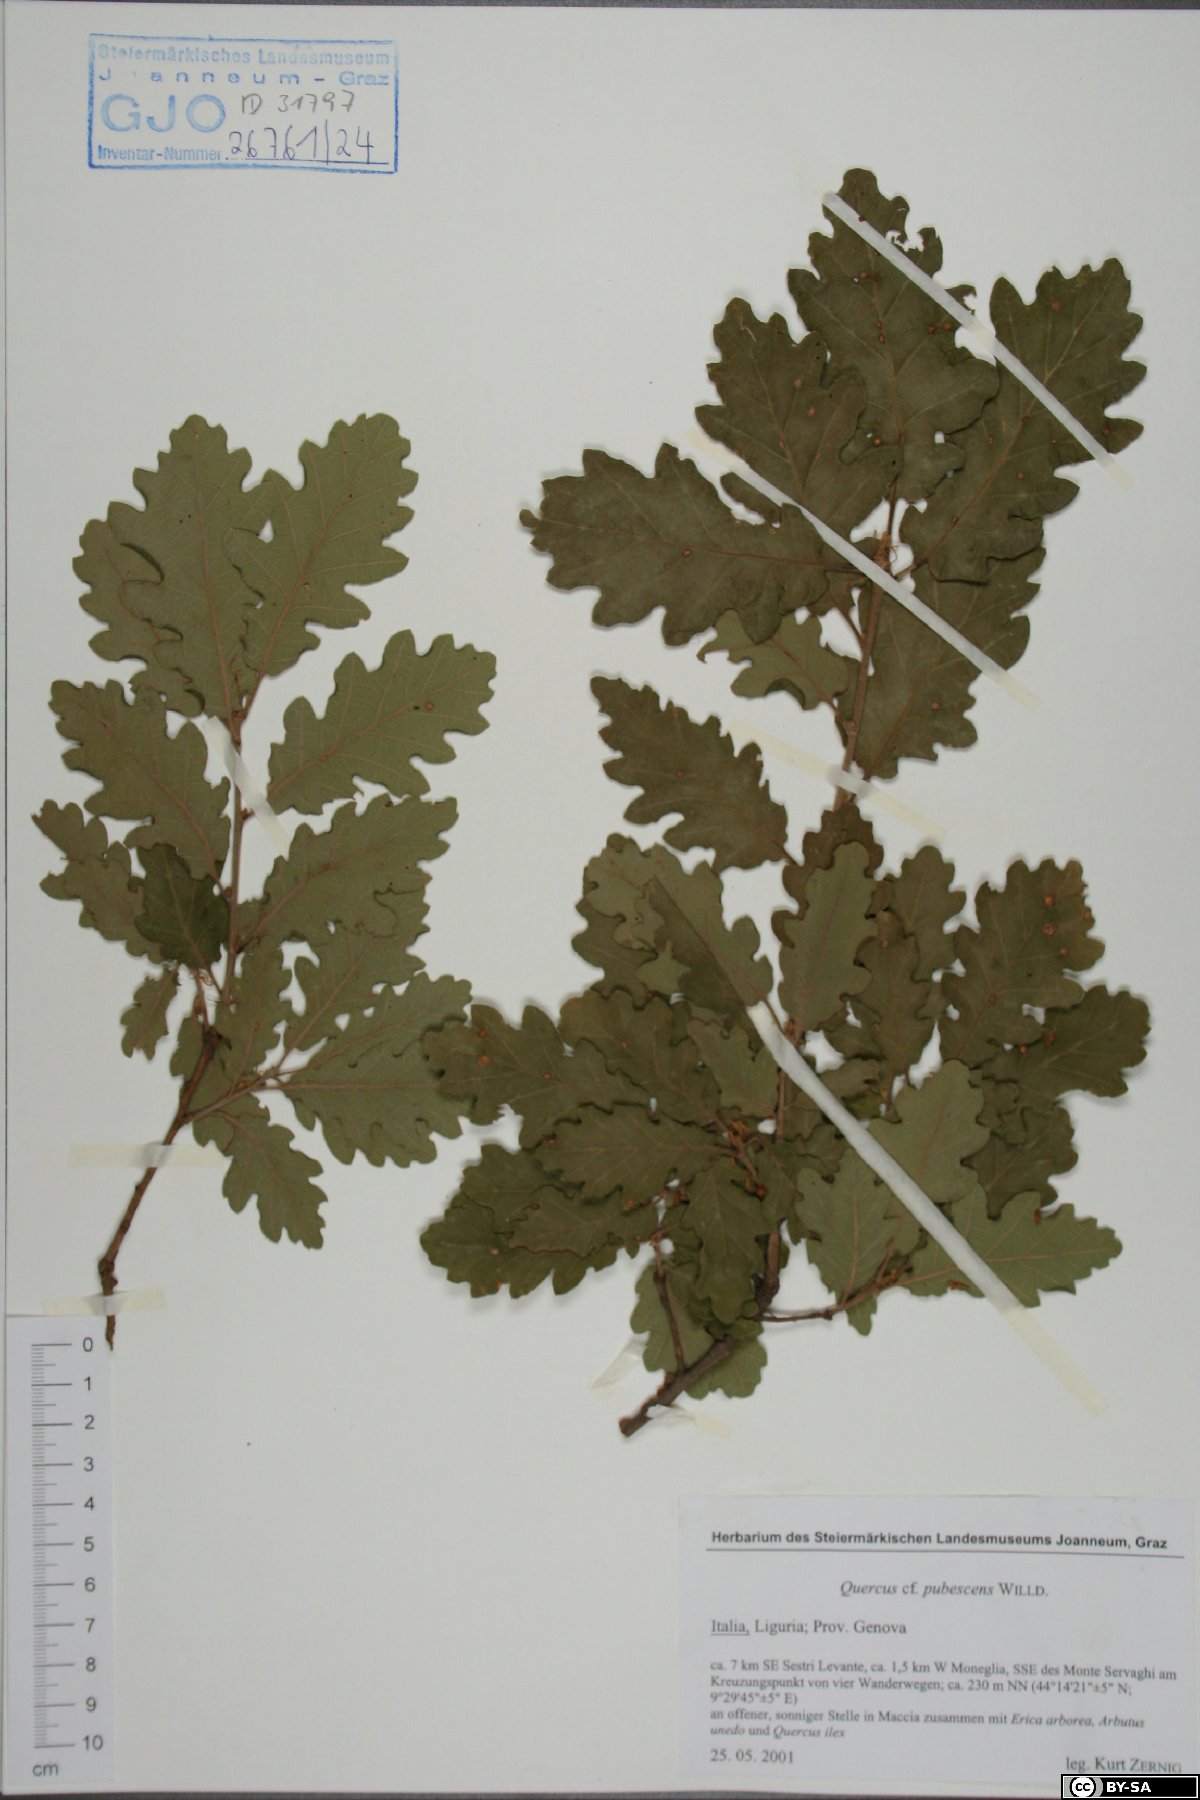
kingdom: Plantae
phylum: Tracheophyta
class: Magnoliopsida
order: Fagales
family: Fagaceae
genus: Quercus
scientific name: Quercus pubescens
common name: Downy oak
